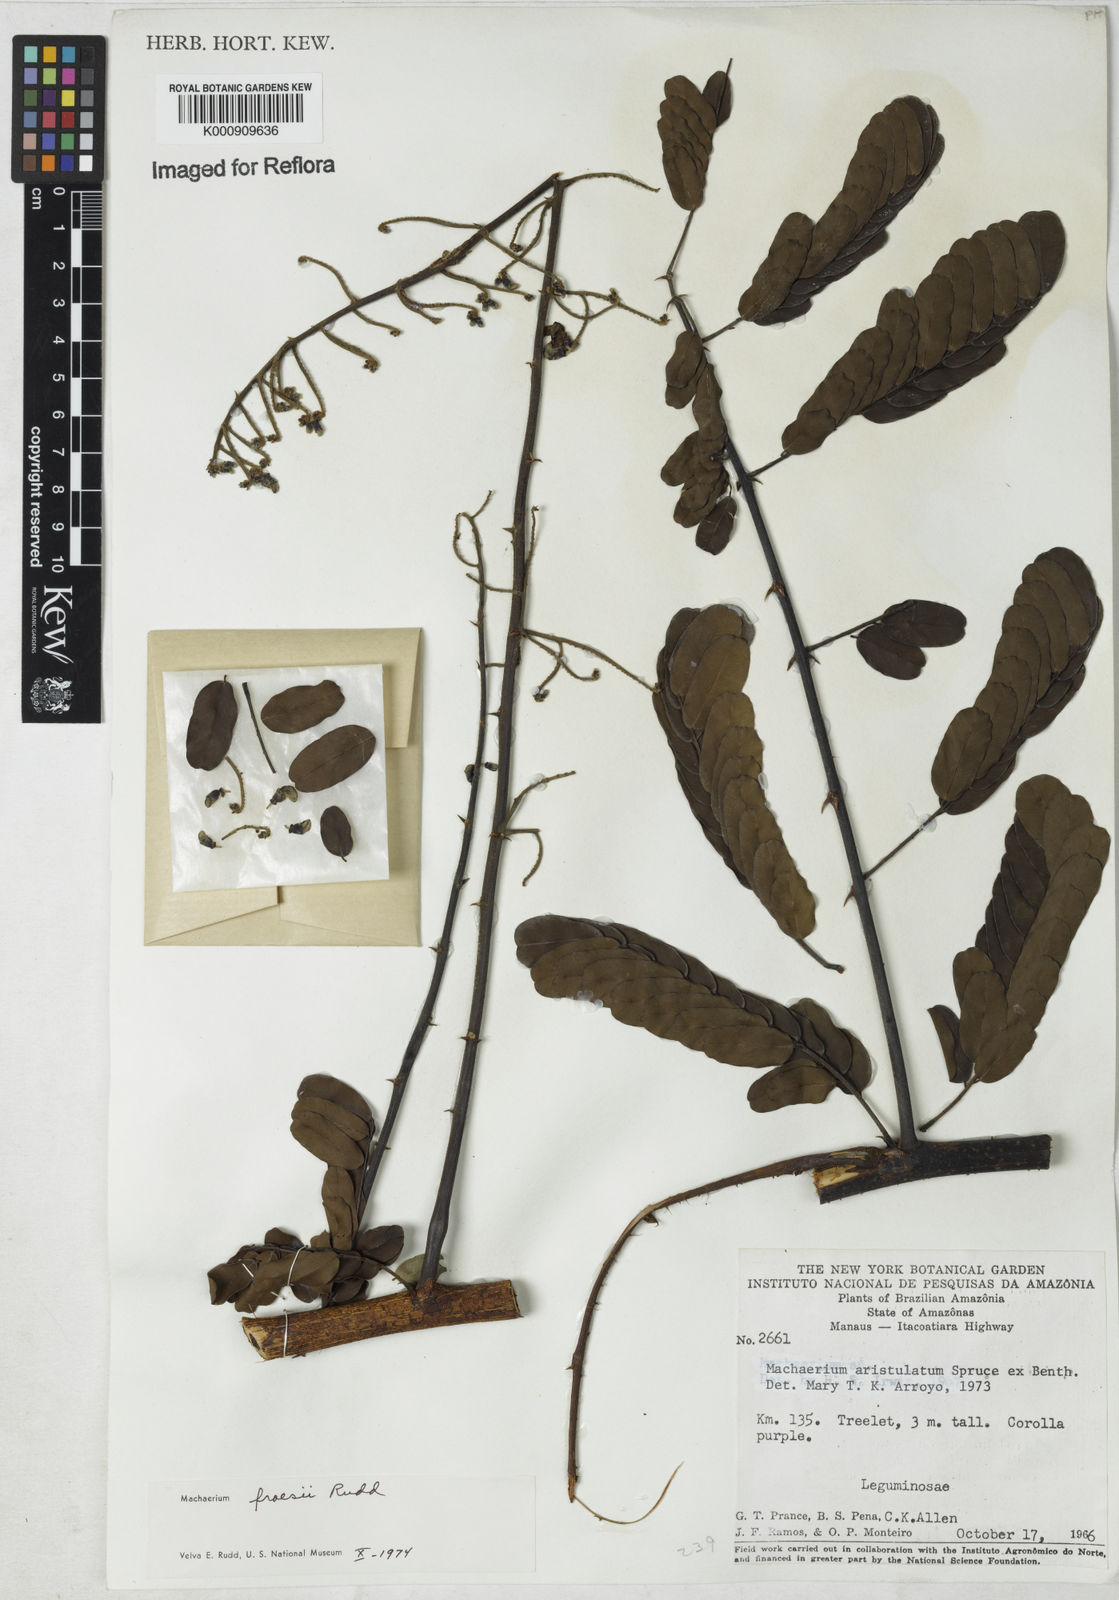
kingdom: Plantae
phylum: Tracheophyta
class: Magnoliopsida
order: Fabales
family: Fabaceae
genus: Machaerium
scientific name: Machaerium froesii
